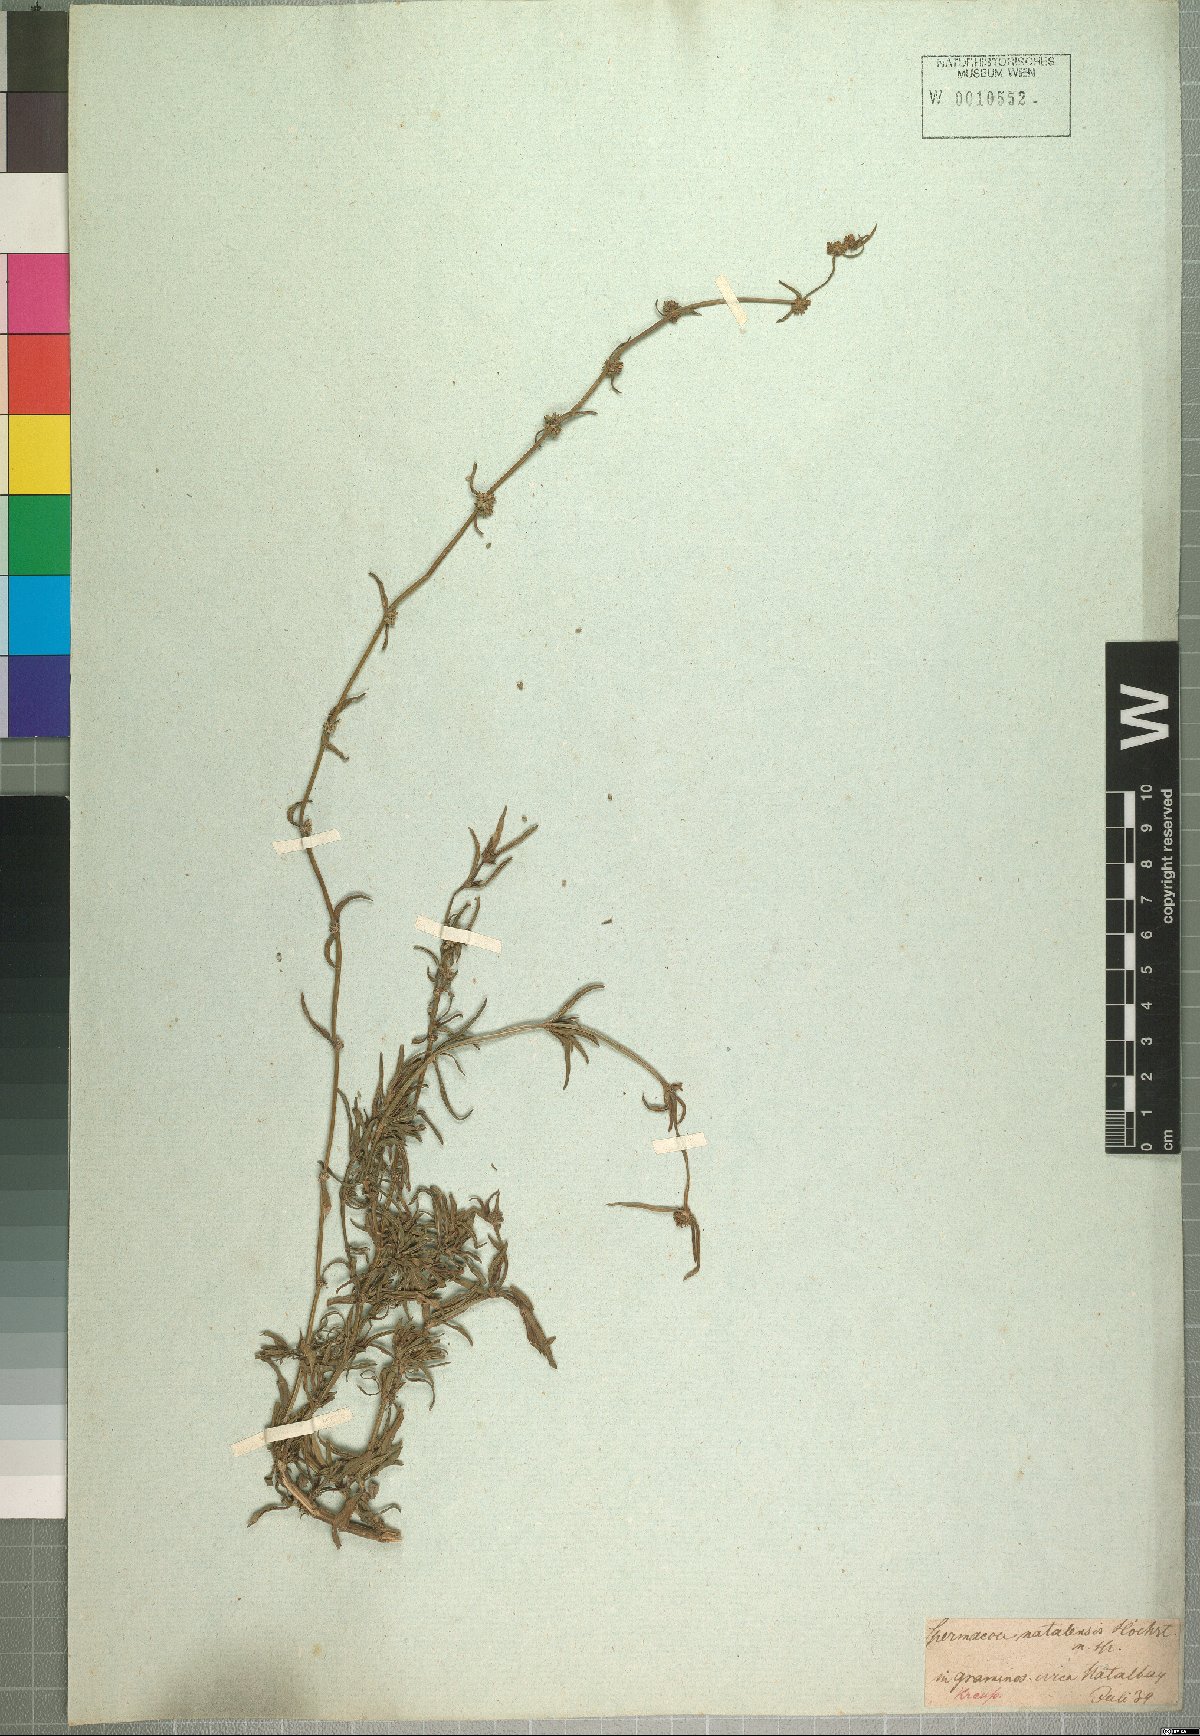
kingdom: Plantae
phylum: Tracheophyta
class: Magnoliopsida
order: Gentianales
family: Rubiaceae
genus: Spermacoce
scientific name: Spermacoce natalensis
